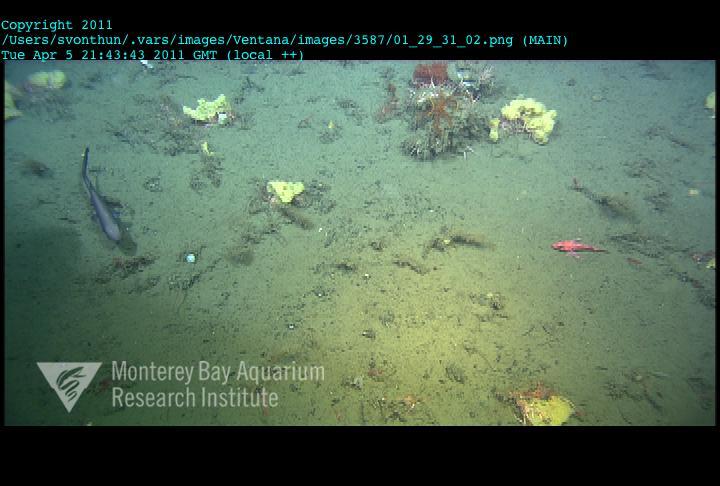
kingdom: Animalia
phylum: Porifera
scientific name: Porifera
